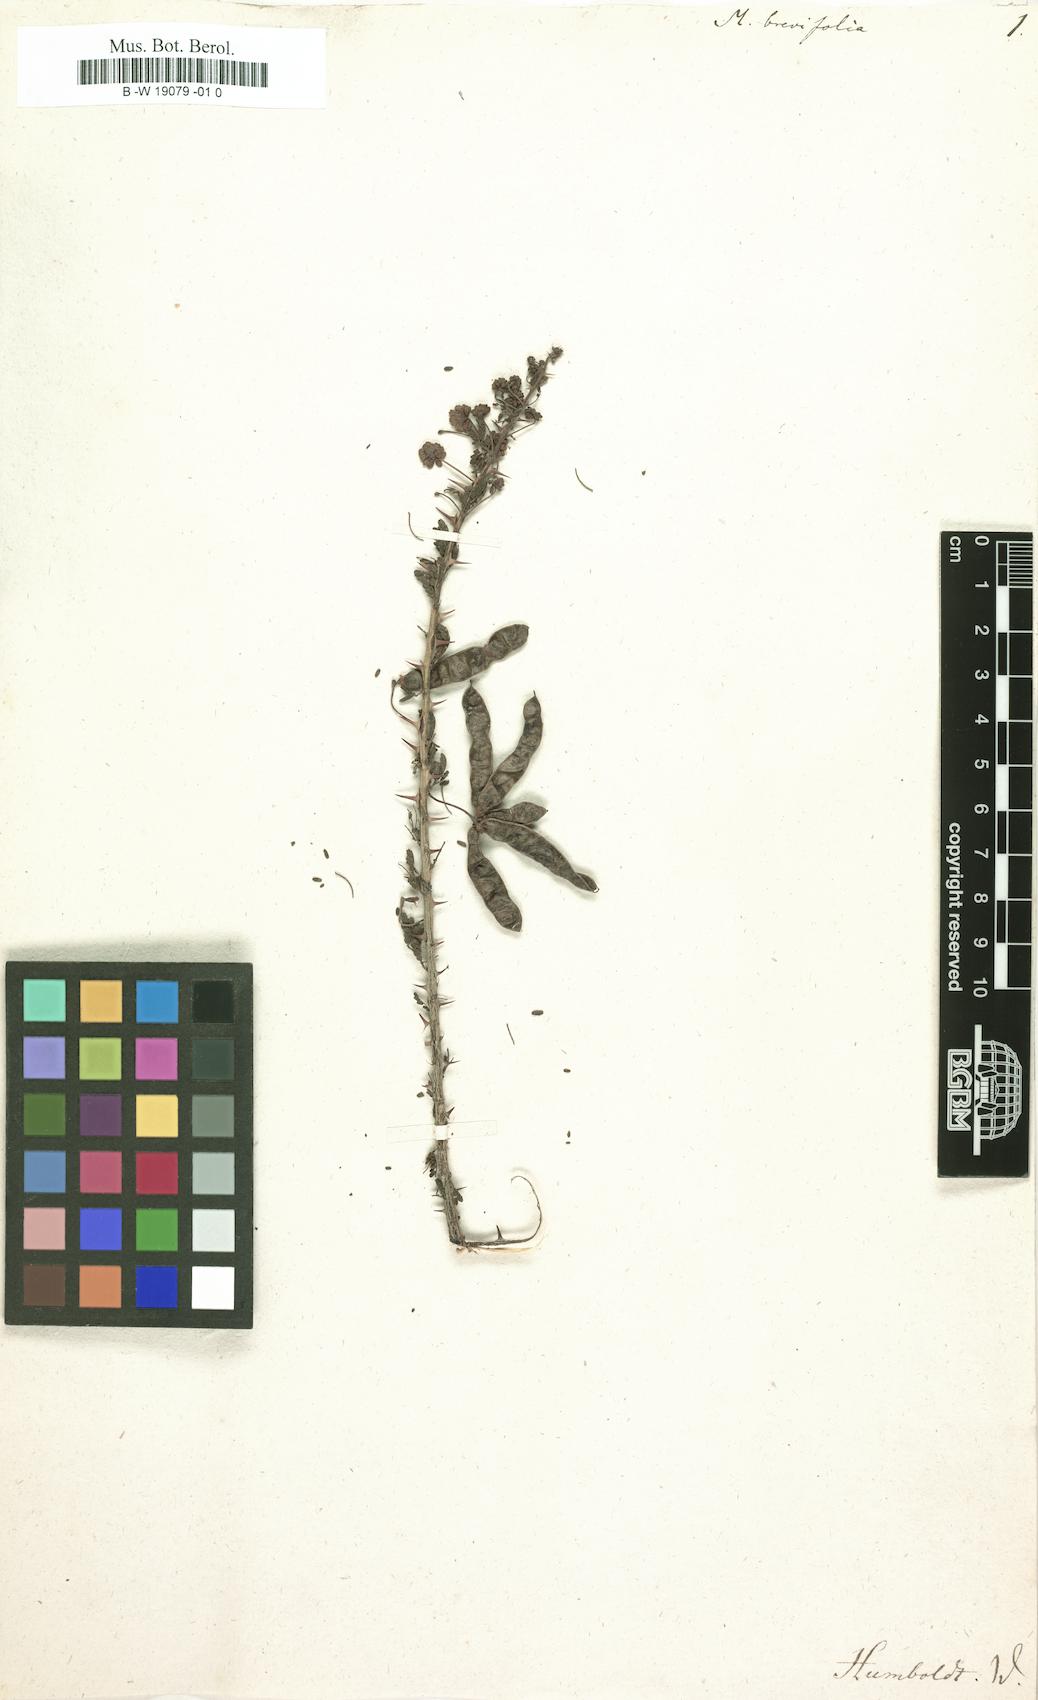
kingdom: Plantae
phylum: Tracheophyta
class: Magnoliopsida
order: Fabales
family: Fabaceae
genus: Mimosa
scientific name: Mimosa montana
